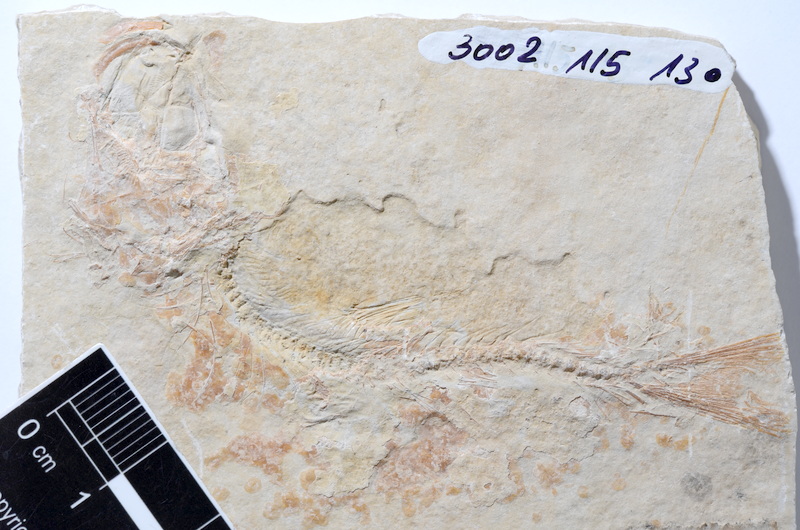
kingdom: Animalia
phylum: Chordata
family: Ascalaboidae
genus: Tharsis
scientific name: Tharsis dubius
